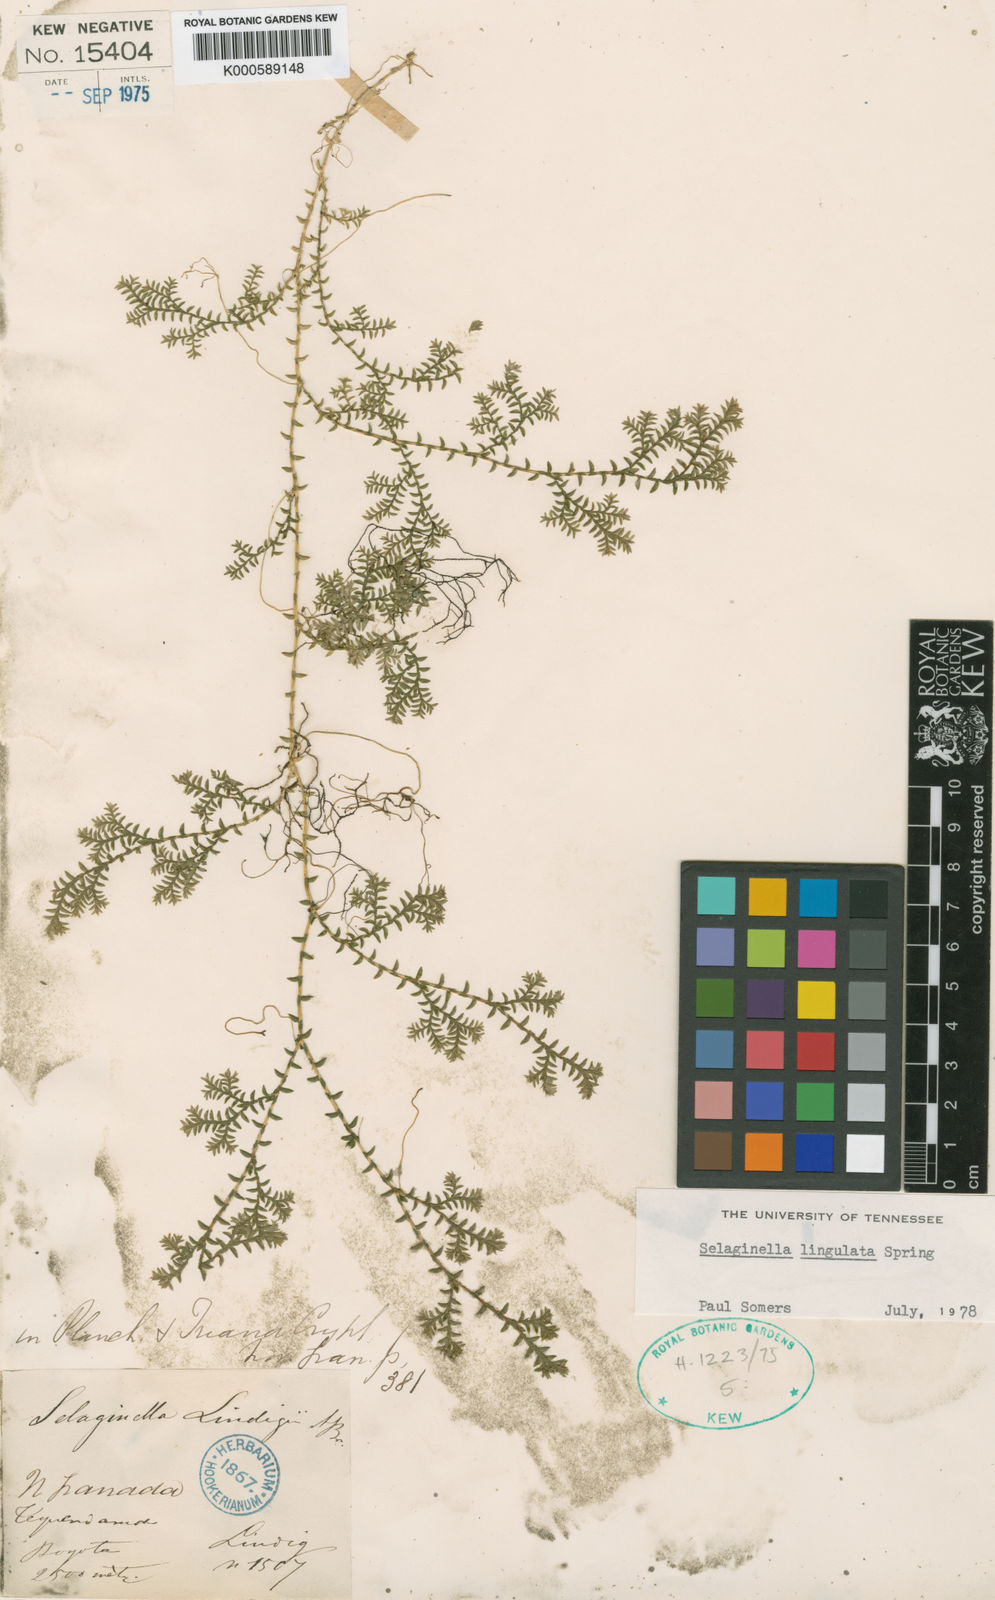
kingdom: Plantae
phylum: Tracheophyta
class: Lycopodiopsida
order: Selaginellales
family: Selaginellaceae
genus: Selaginella
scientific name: Selaginella
